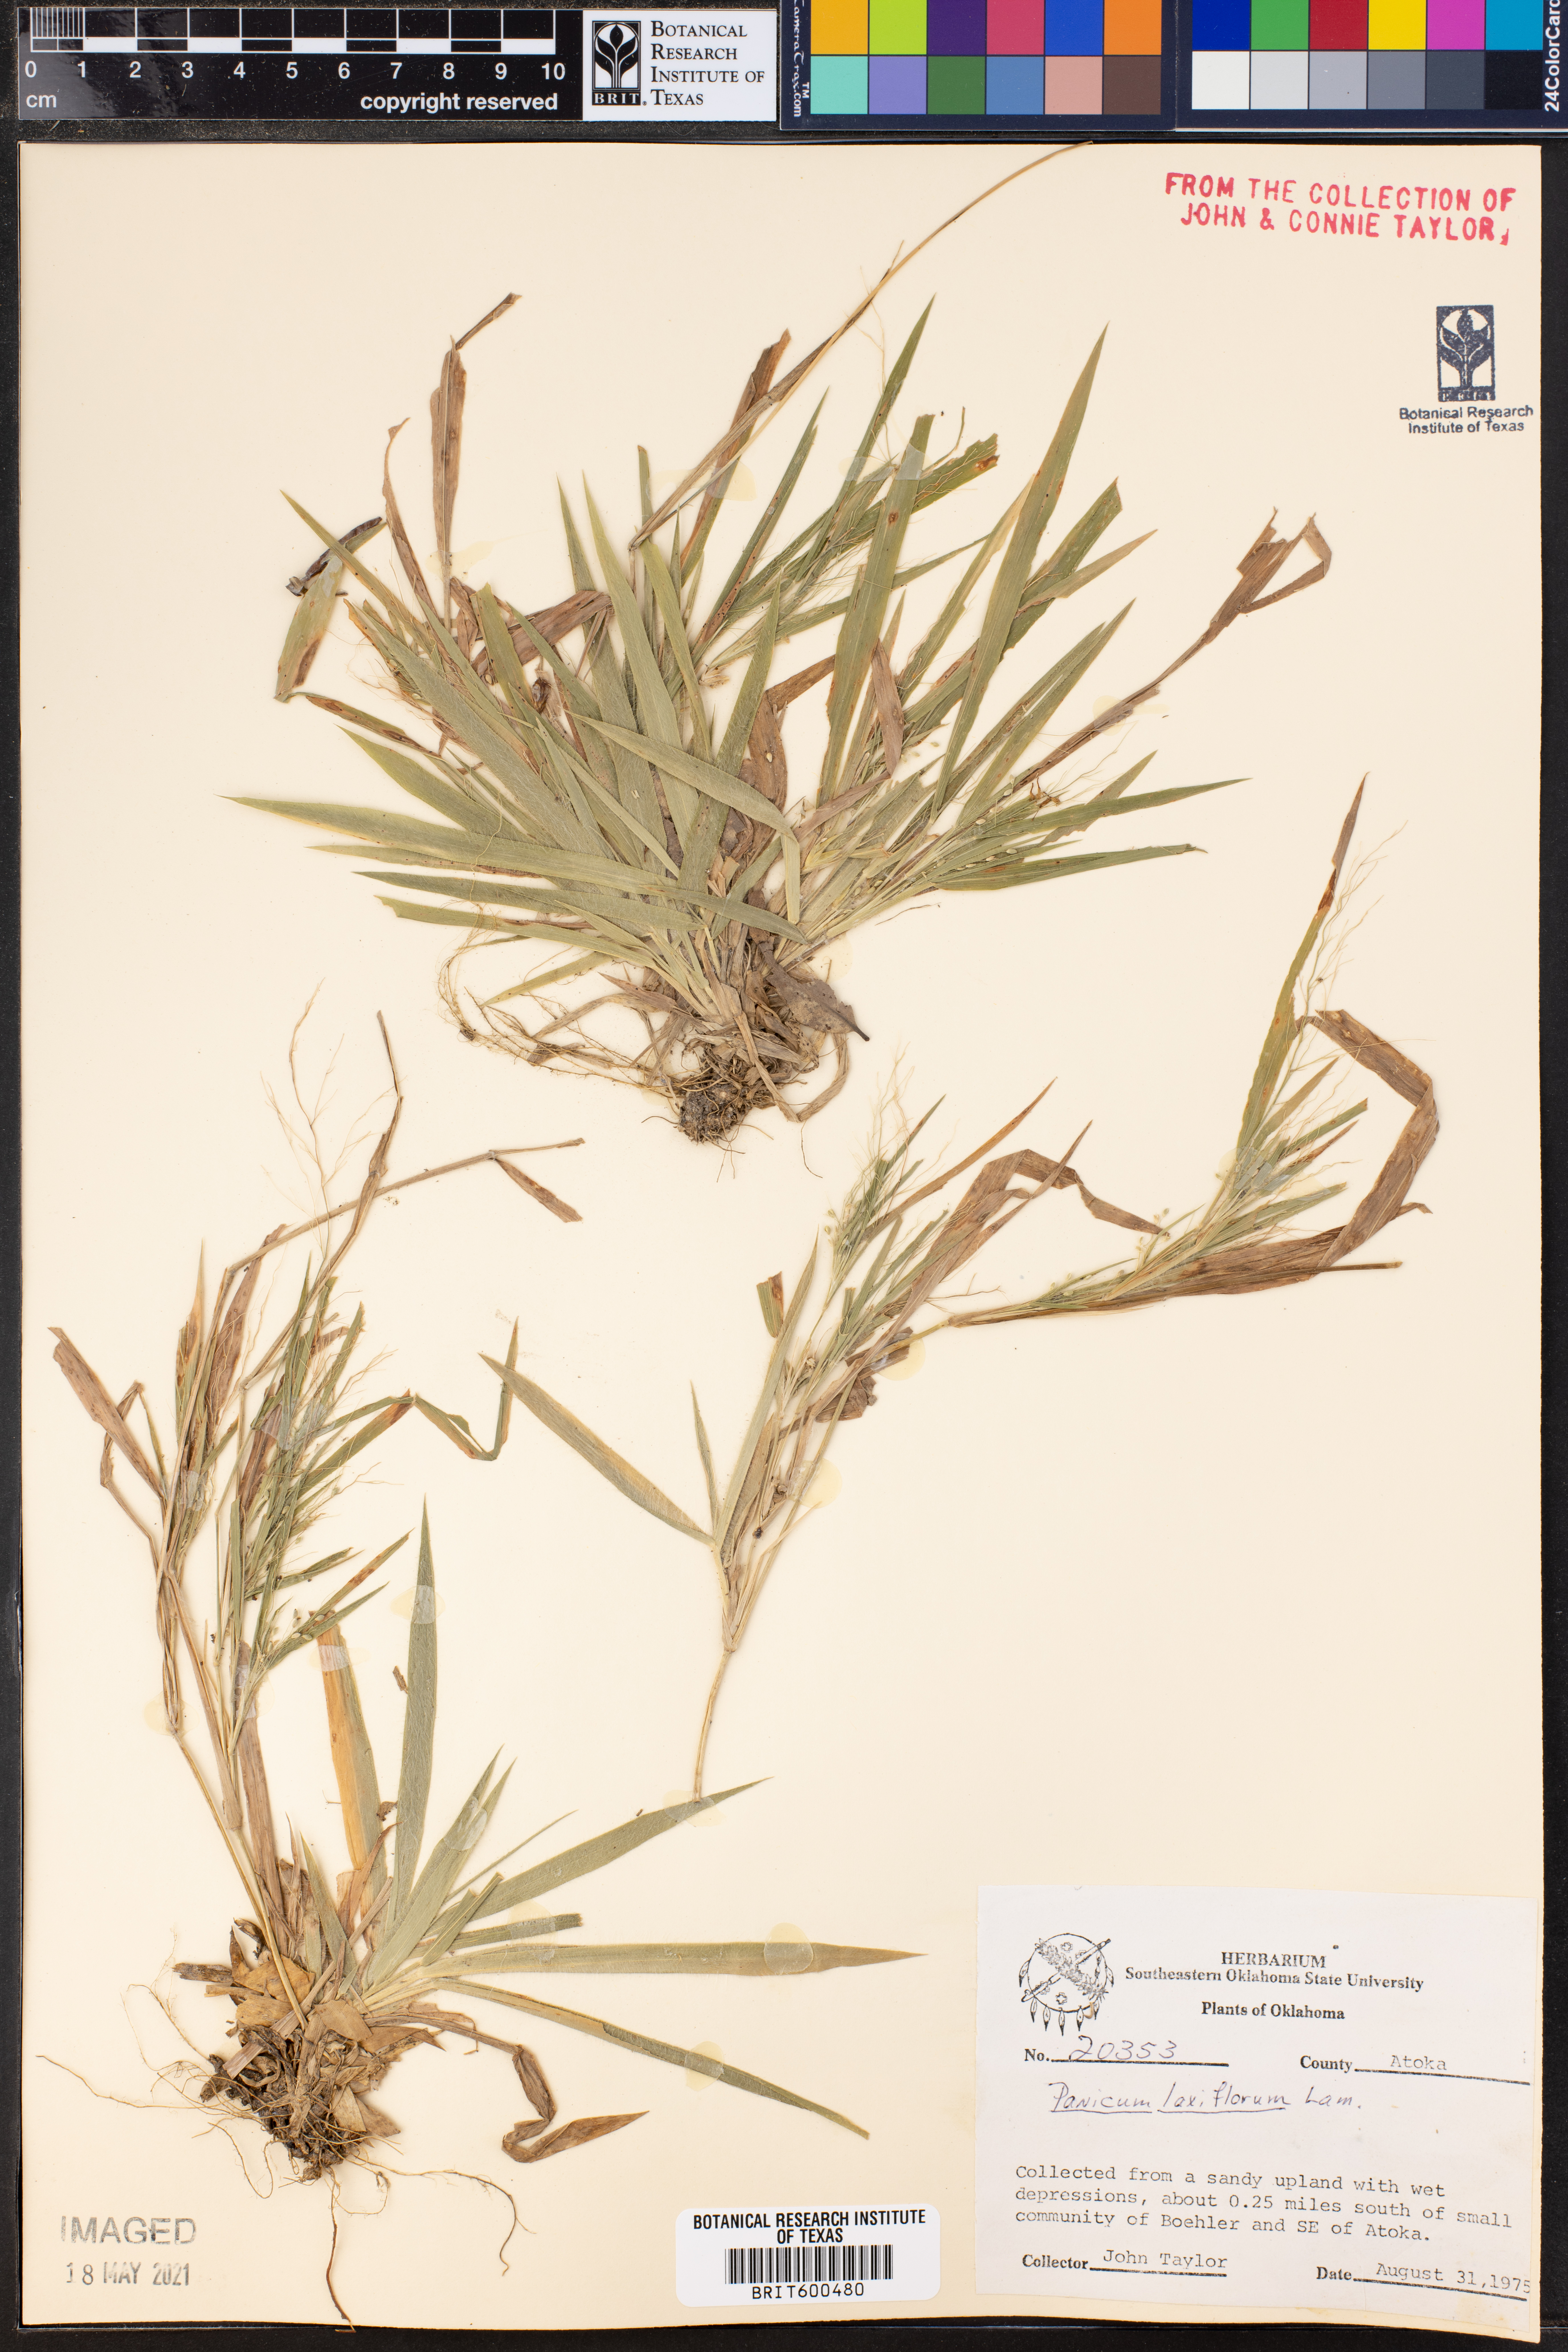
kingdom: Plantae
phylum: Tracheophyta
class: Liliopsida
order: Poales
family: Poaceae
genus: Dichanthelium
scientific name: Dichanthelium laxiflorum
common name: Soft-tuft panic grass
